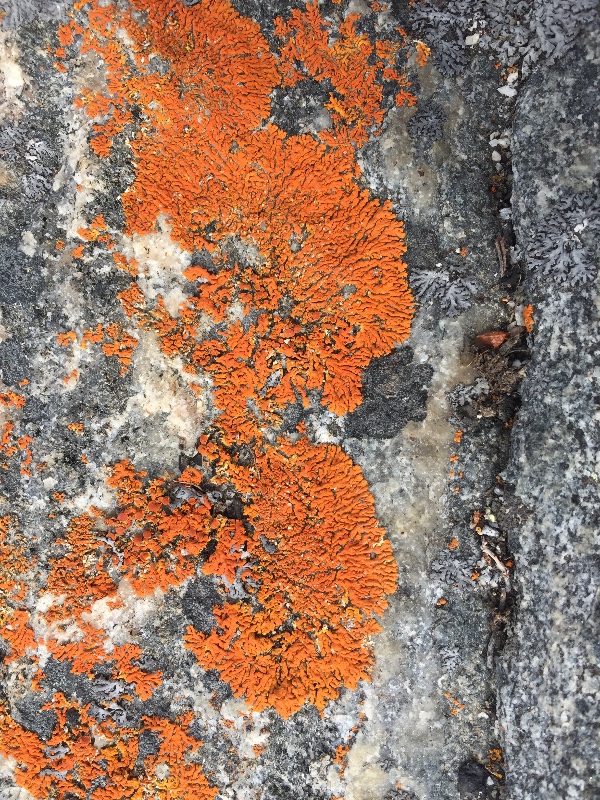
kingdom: Fungi
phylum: Ascomycota
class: Lecanoromycetes
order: Teloschistales
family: Teloschistaceae
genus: Xanthoria
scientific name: Xanthoria elegans
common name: fjeld-væggelav
